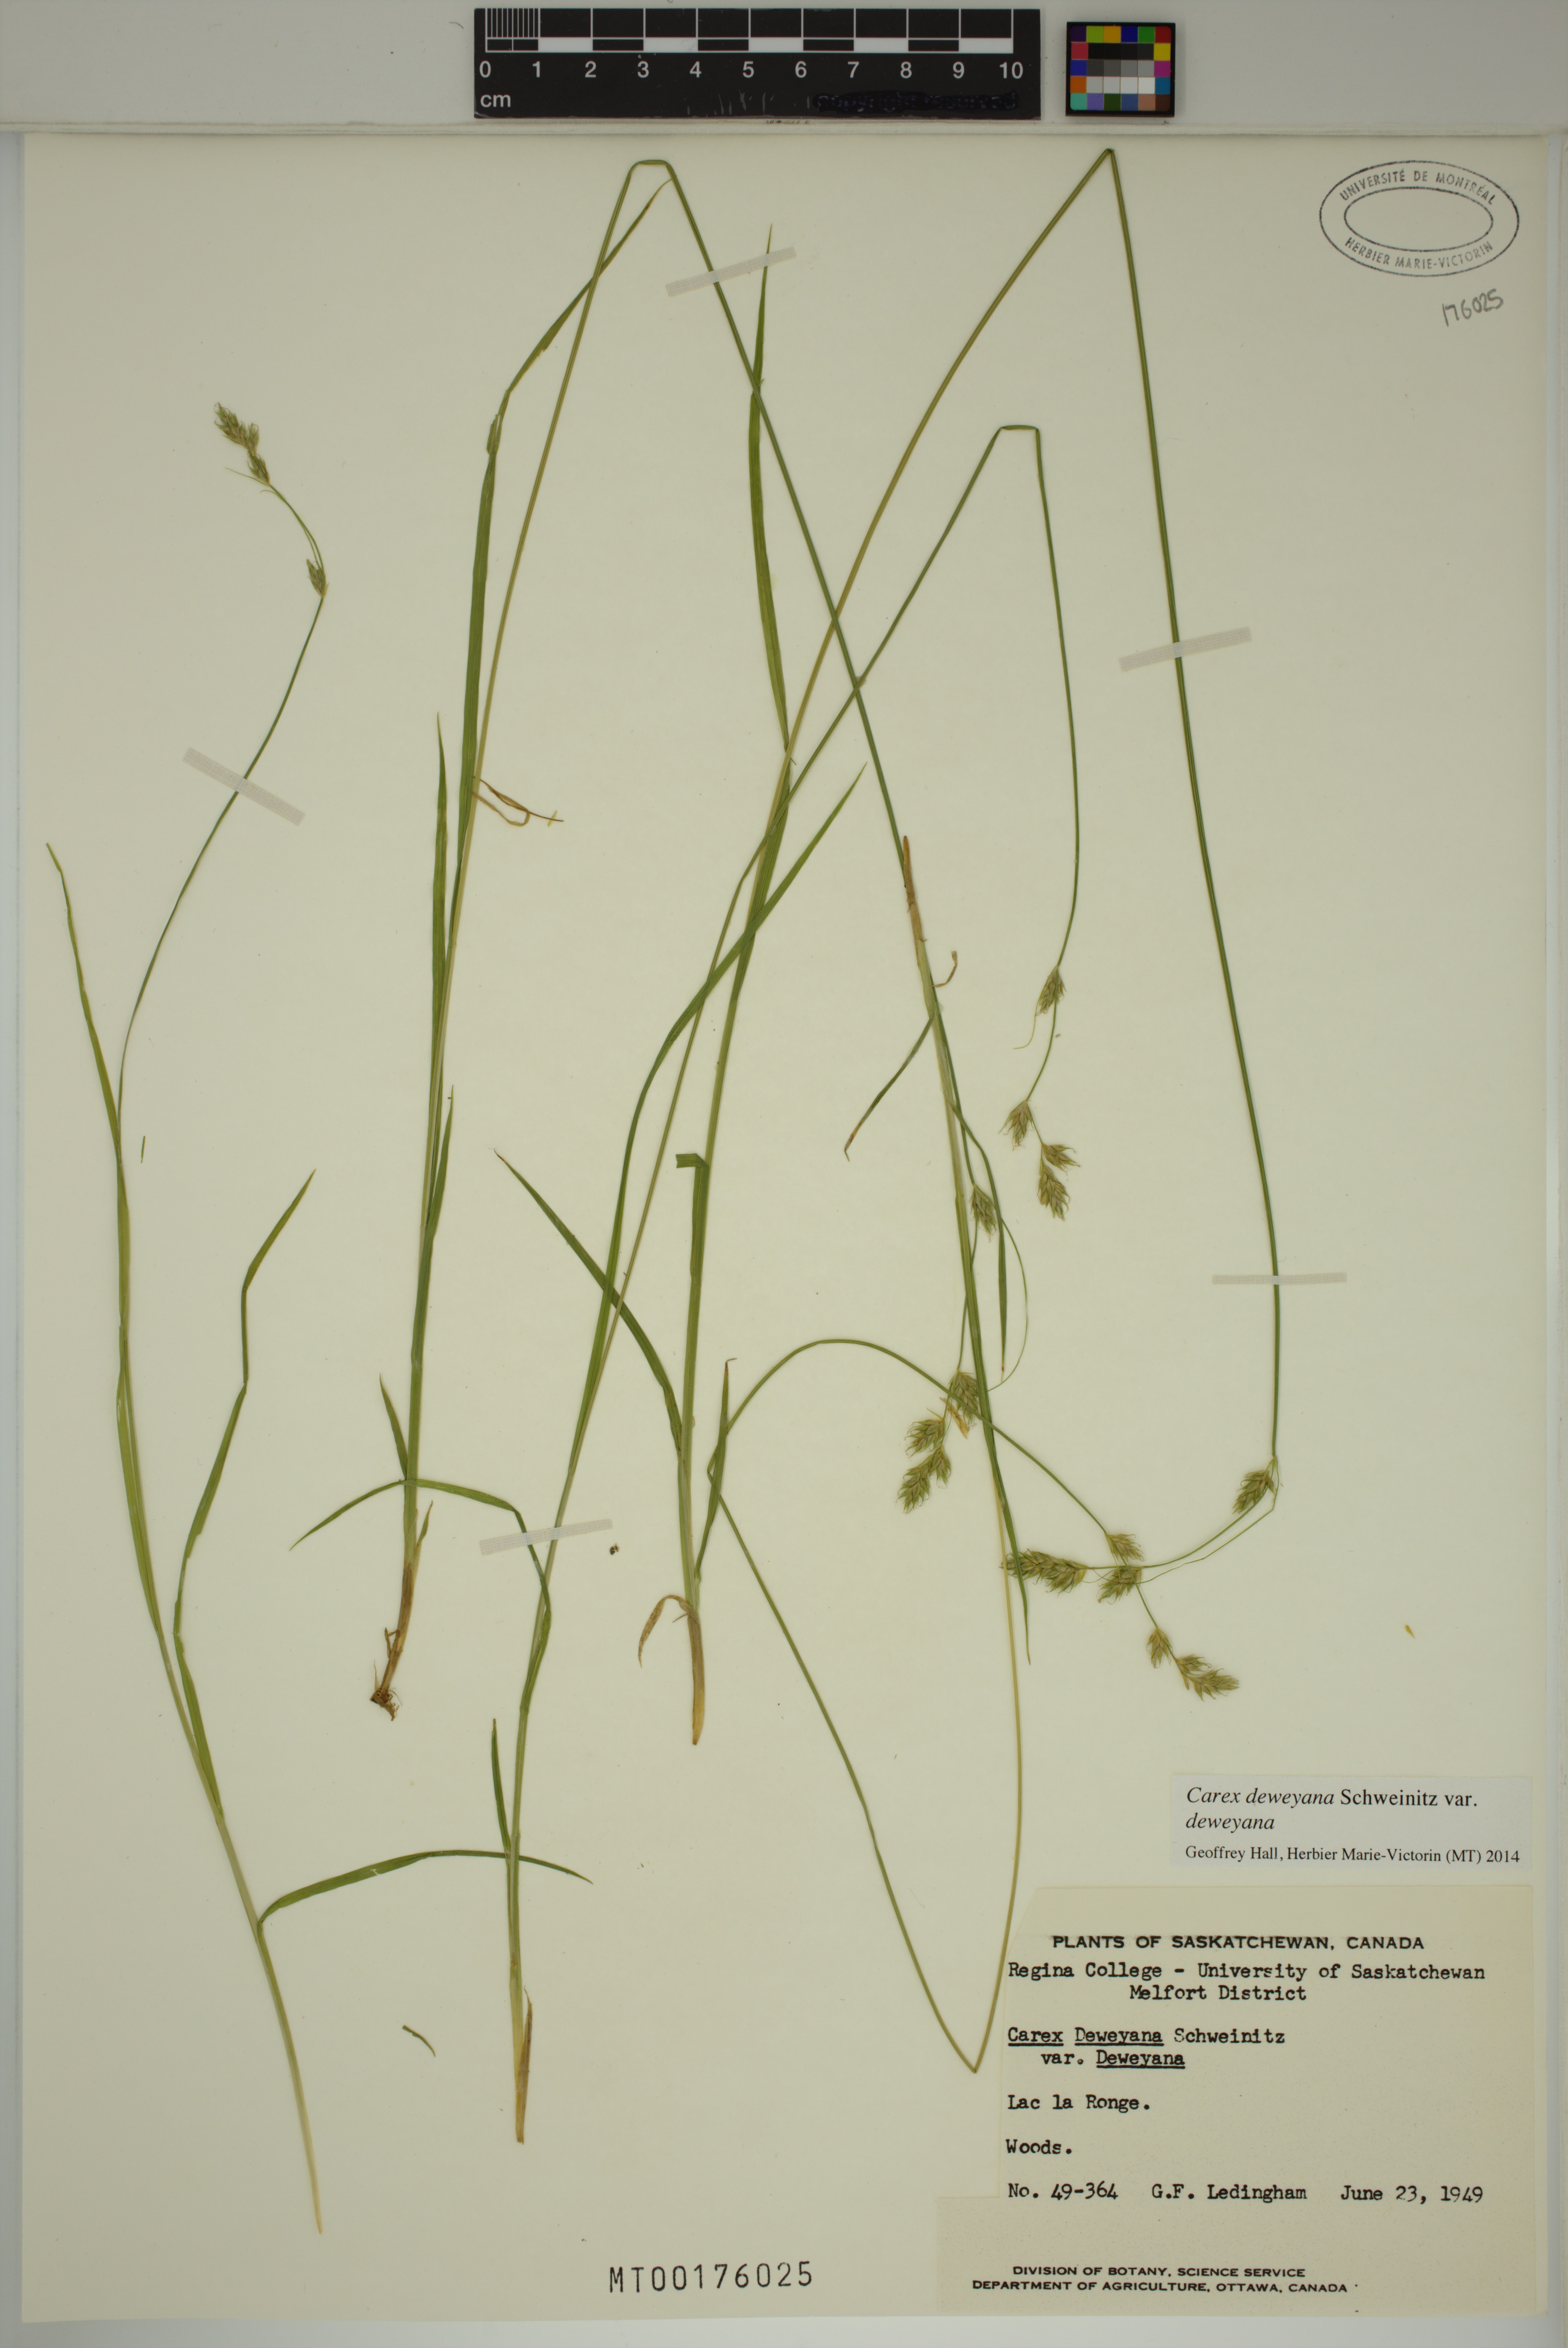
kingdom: Plantae
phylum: Tracheophyta
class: Liliopsida
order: Poales
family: Cyperaceae
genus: Carex
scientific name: Carex deweyana
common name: Dewey's sedge
